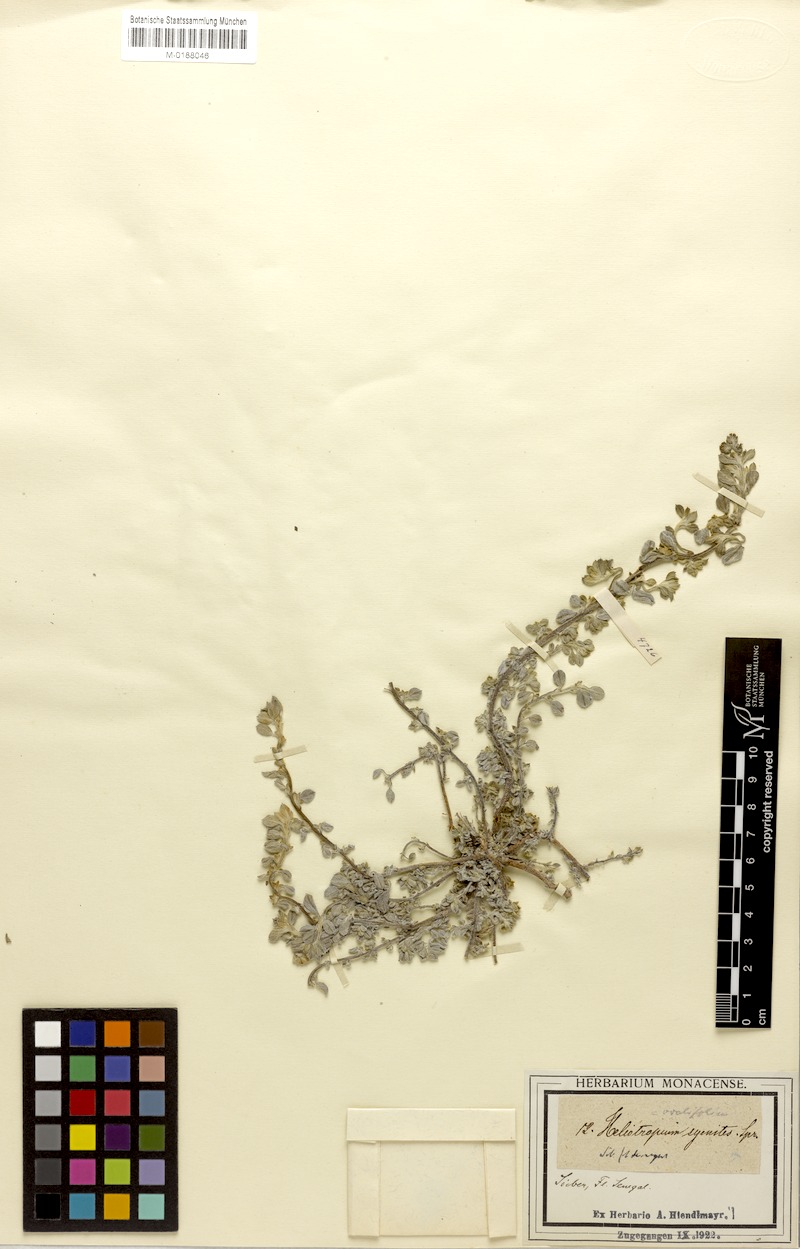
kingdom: Plantae
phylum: Tracheophyta
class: Magnoliopsida
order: Boraginales
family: Heliotropiaceae
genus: Euploca
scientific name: Euploca ovalifolia
